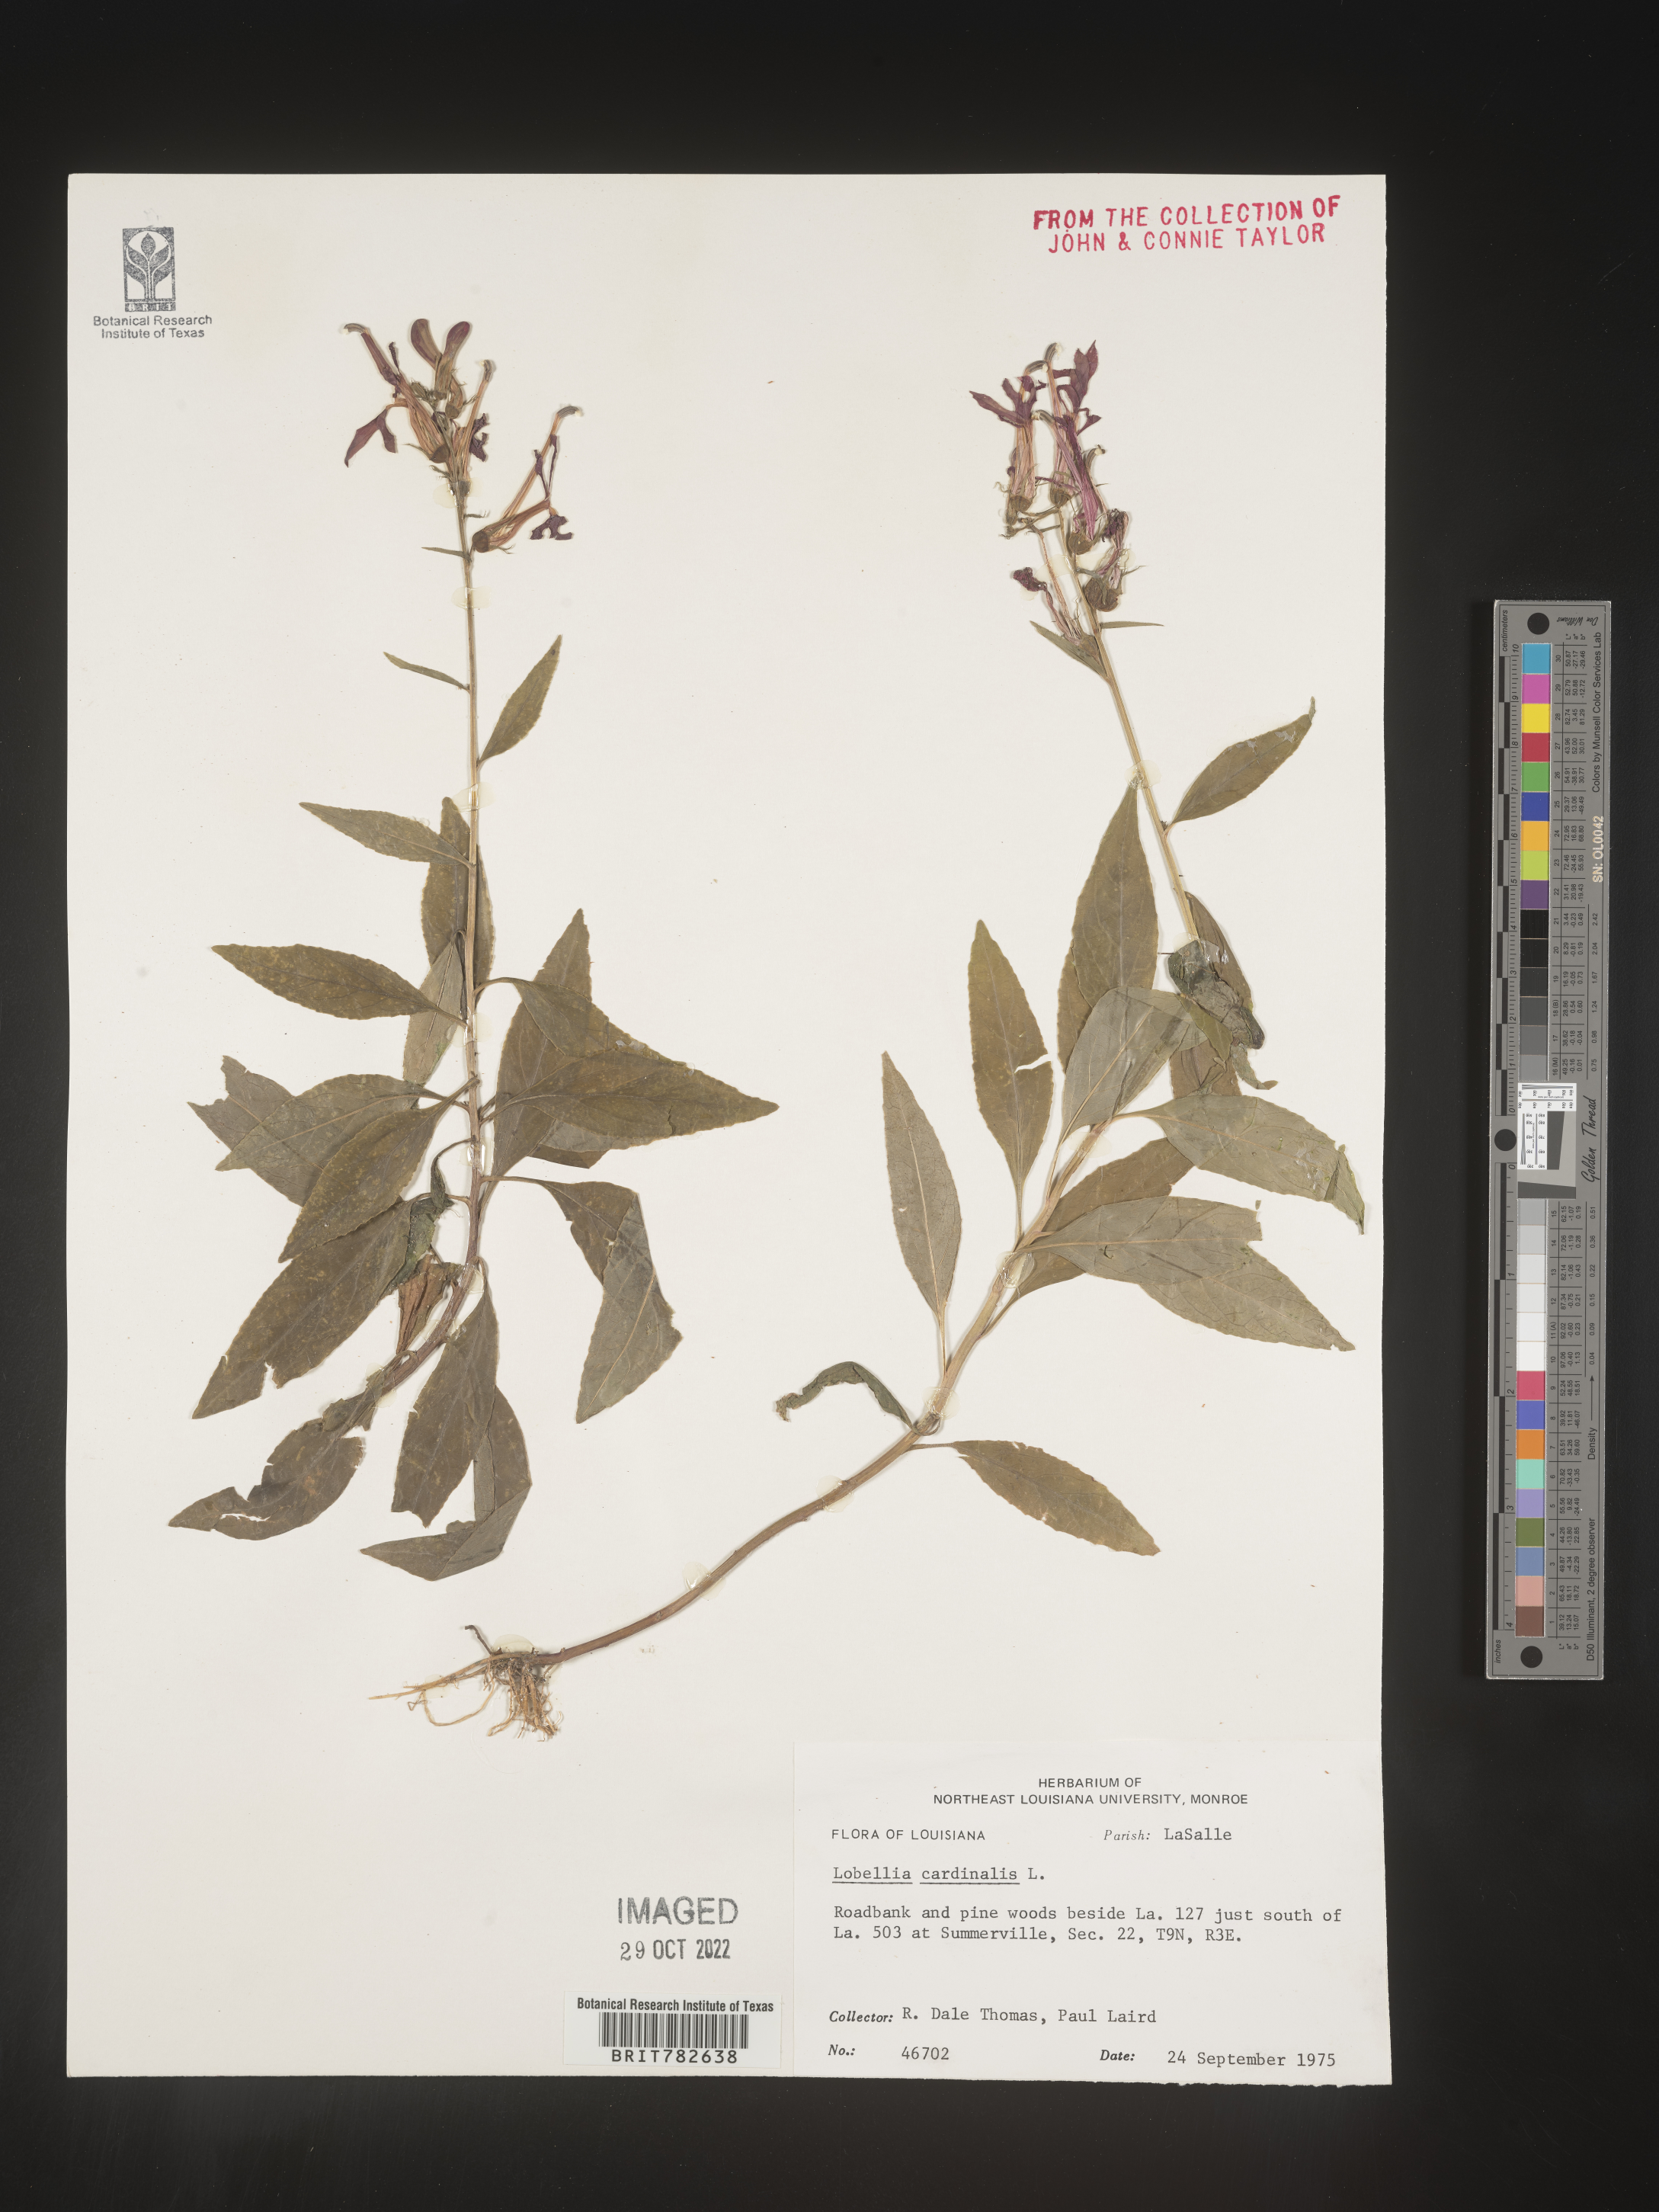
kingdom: Plantae
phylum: Tracheophyta
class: Magnoliopsida
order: Asterales
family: Campanulaceae
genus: Lobelia
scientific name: Lobelia cardinalis
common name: Cardinal flower
